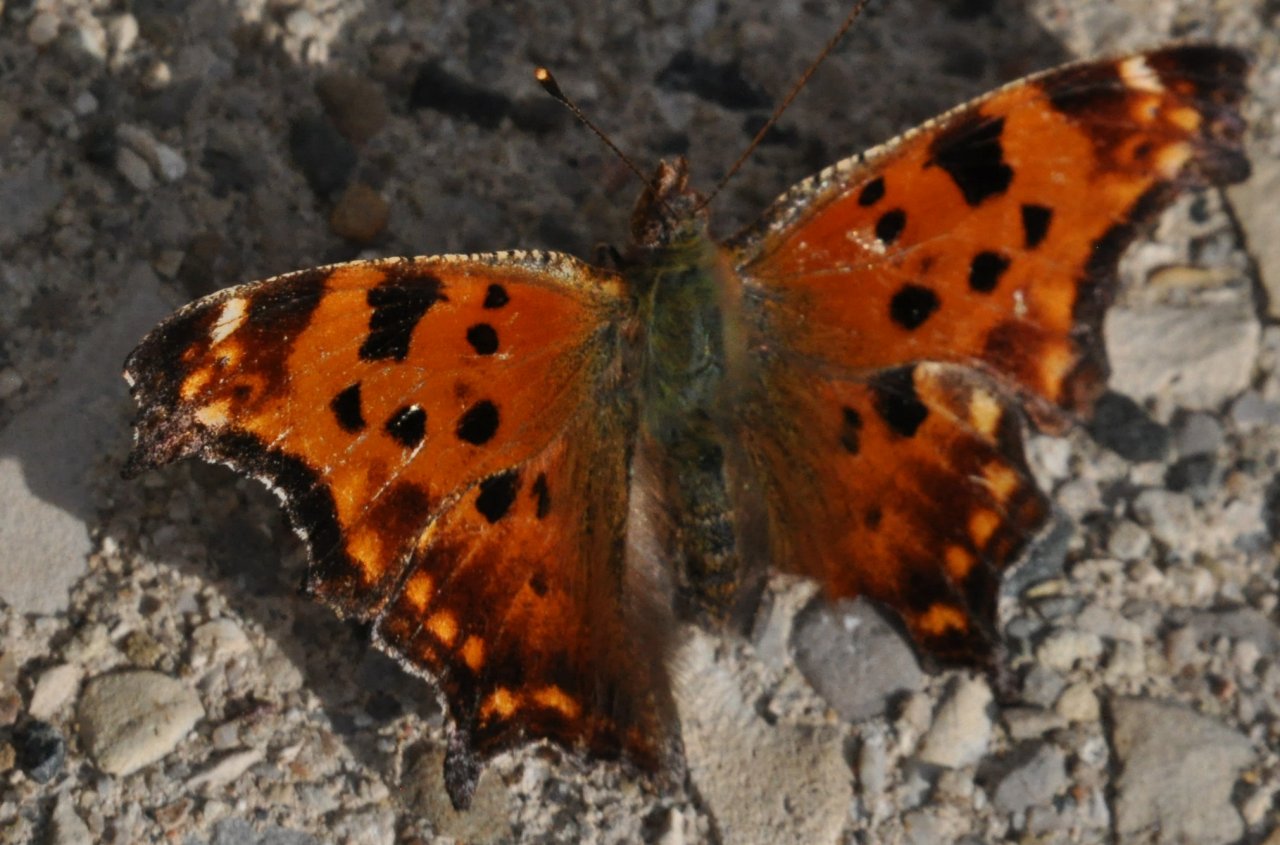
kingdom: Animalia
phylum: Arthropoda
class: Insecta
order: Lepidoptera
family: Nymphalidae
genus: Polygonia
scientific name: Polygonia comma
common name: Eastern Comma
